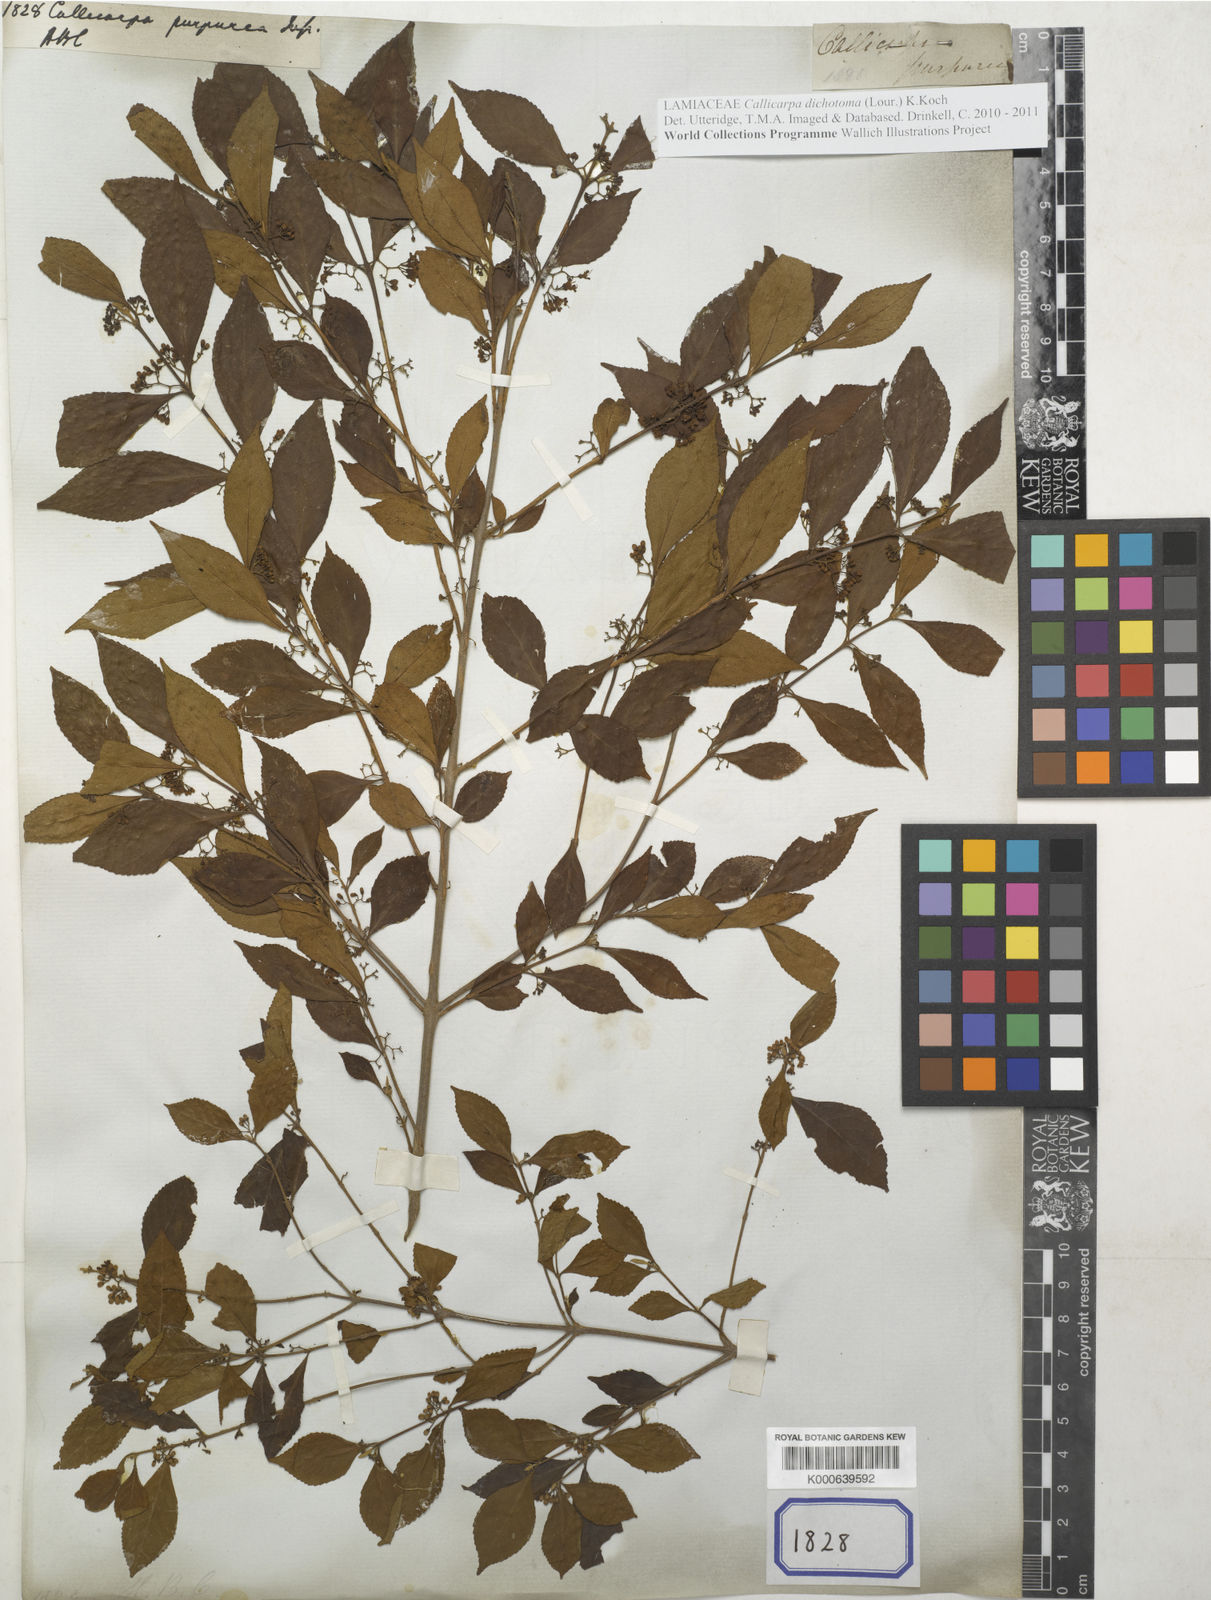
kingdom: Plantae
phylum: Tracheophyta
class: Magnoliopsida
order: Lamiales
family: Lamiaceae
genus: Callicarpa
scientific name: Callicarpa dichotoma
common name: Purple beauty-berry
